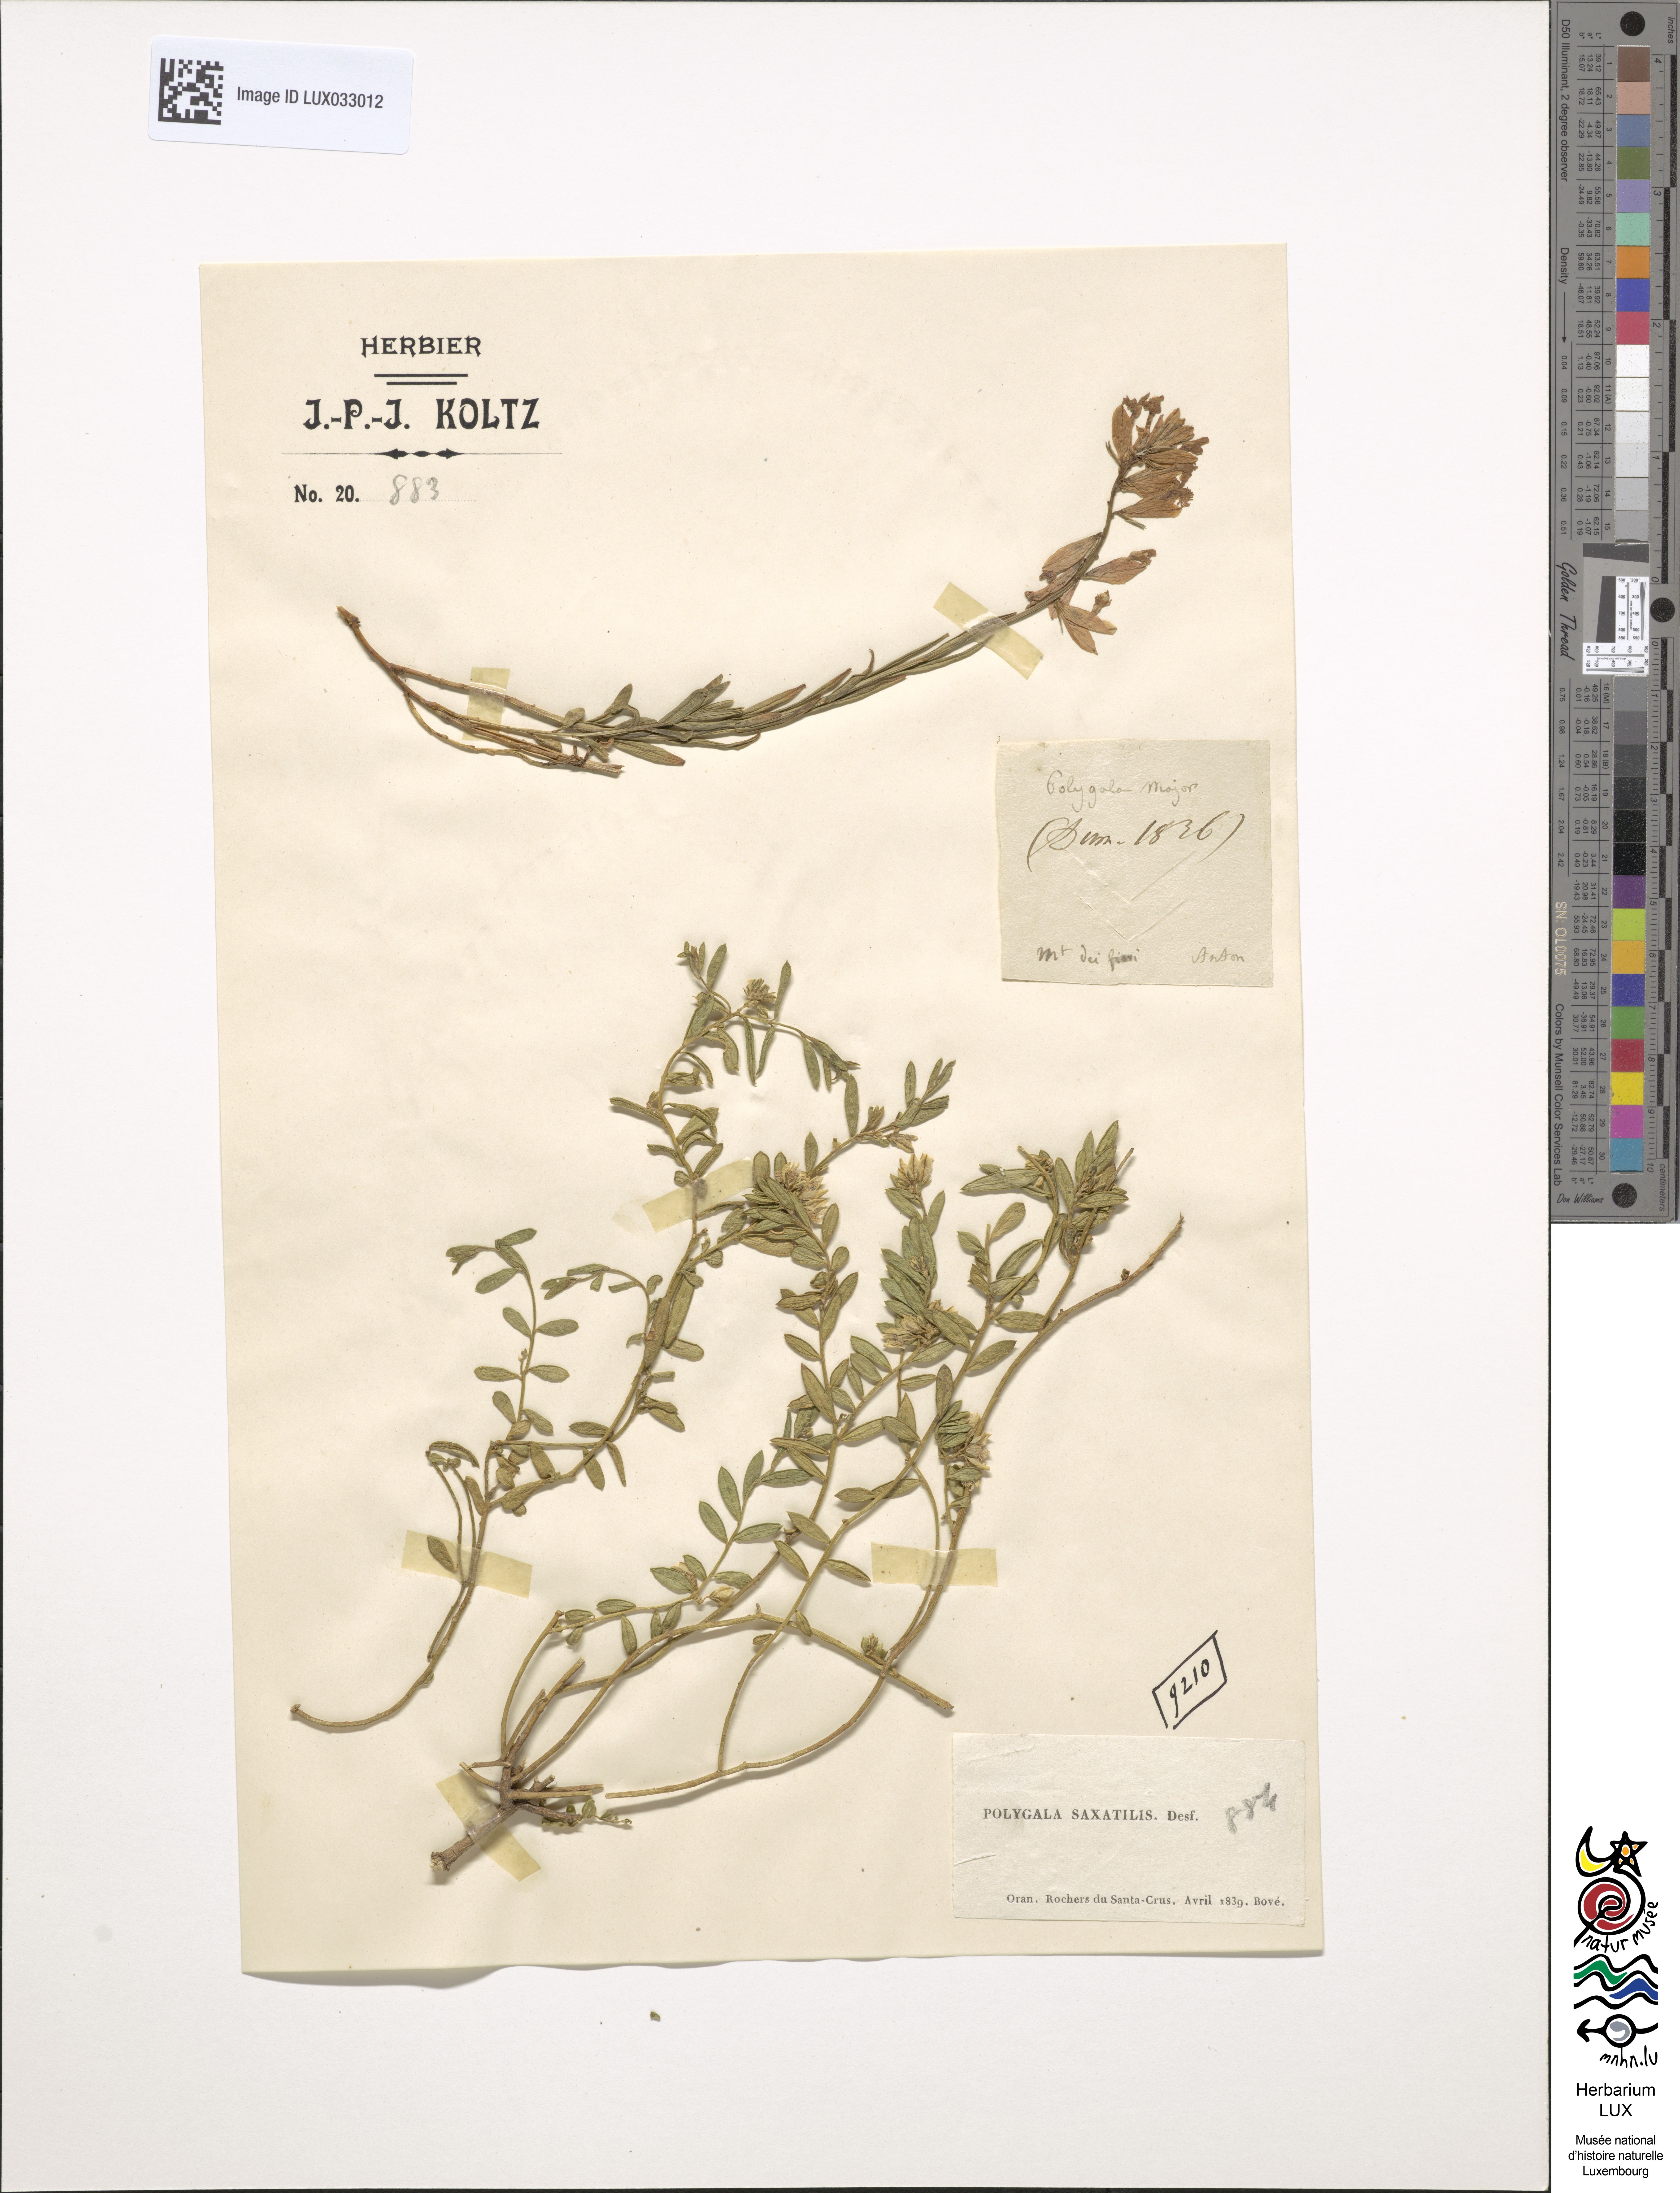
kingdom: Plantae
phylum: Tracheophyta
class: Magnoliopsida
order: Fabales
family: Polygalaceae
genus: Polygala
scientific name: Polygala rupestris
